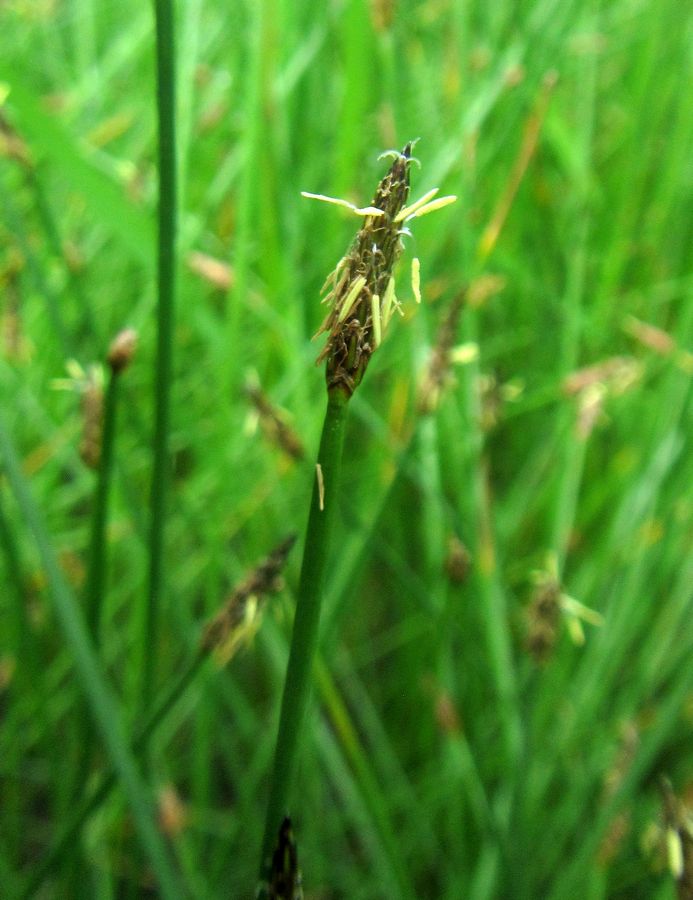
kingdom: Plantae
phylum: Tracheophyta
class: Liliopsida
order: Poales
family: Cyperaceae
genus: Eleocharis
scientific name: Eleocharis
